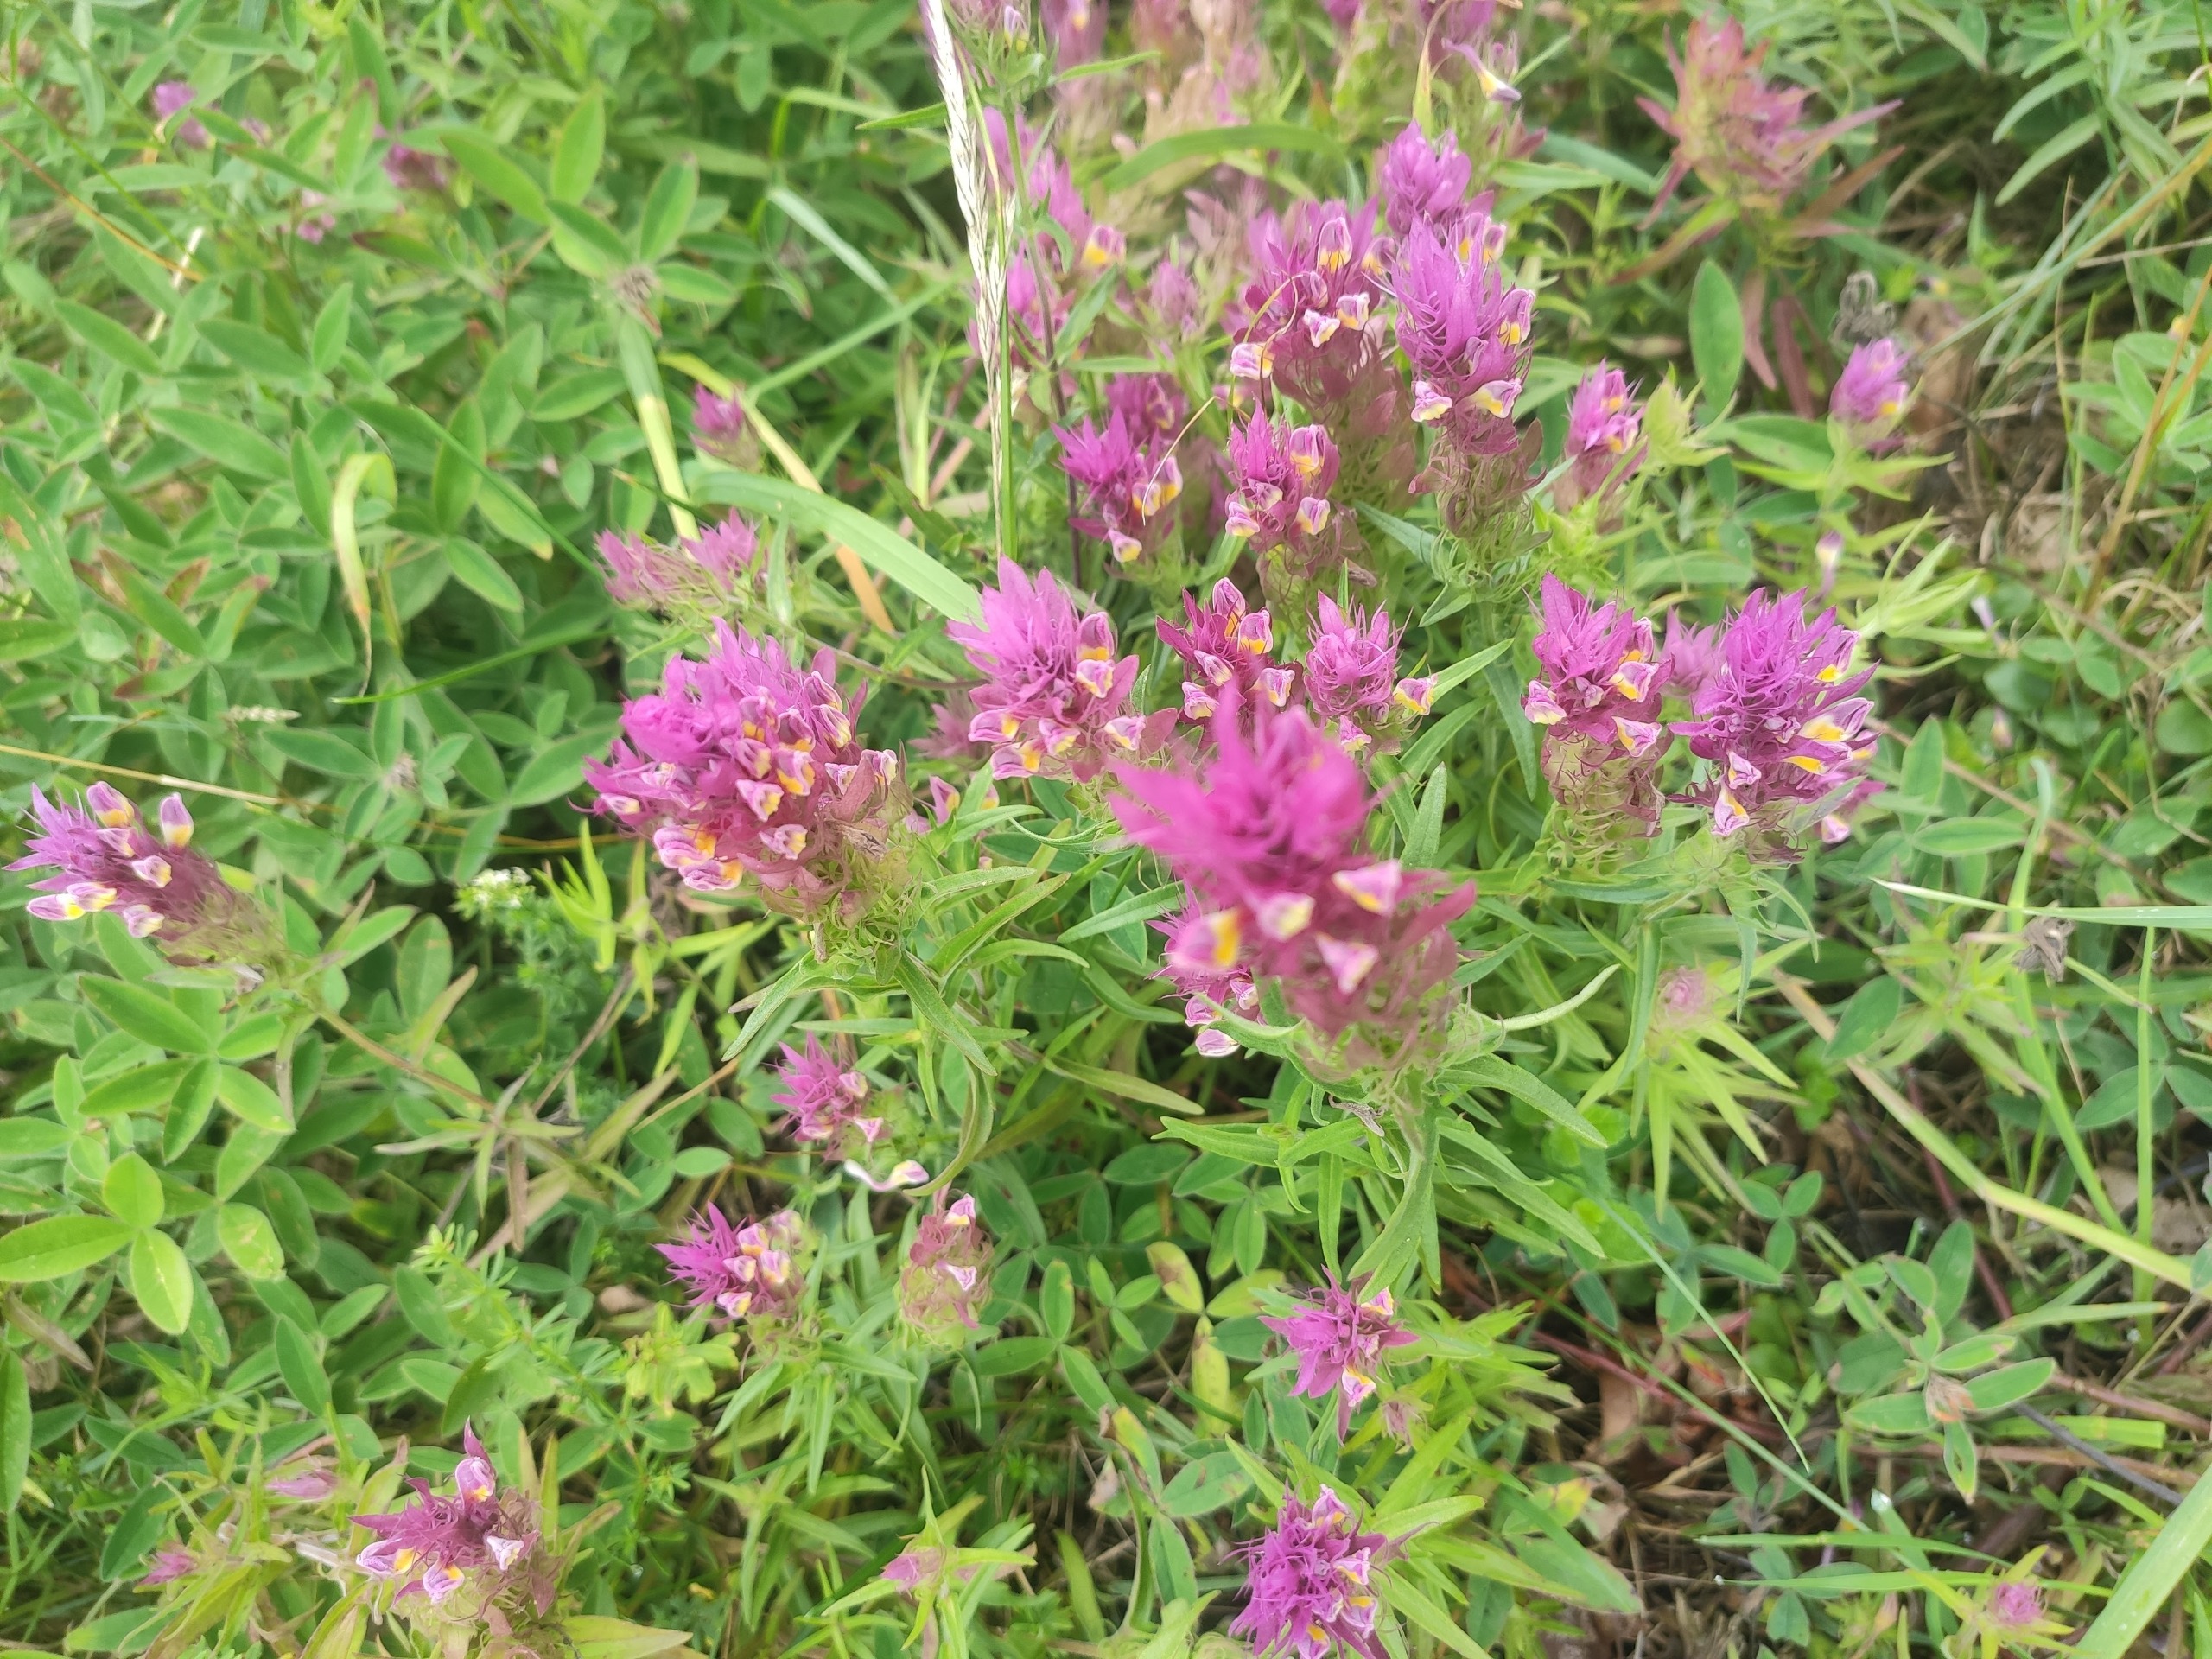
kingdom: Plantae
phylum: Tracheophyta
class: Magnoliopsida
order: Lamiales
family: Orobanchaceae
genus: Melampyrum
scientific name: Melampyrum arvense
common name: Ager-kohvede
